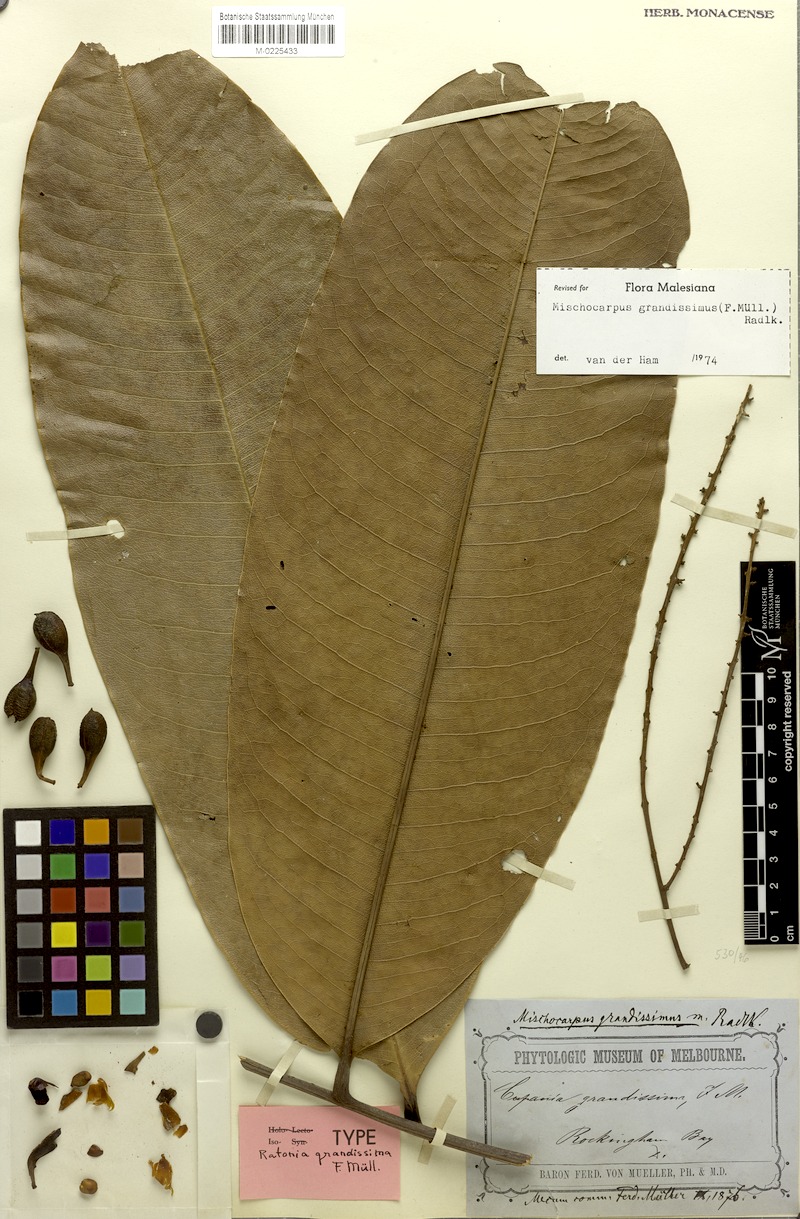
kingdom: Plantae
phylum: Tracheophyta
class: Magnoliopsida
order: Sapindales
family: Sapindaceae
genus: Mischocarpus
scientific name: Mischocarpus grandissimus
